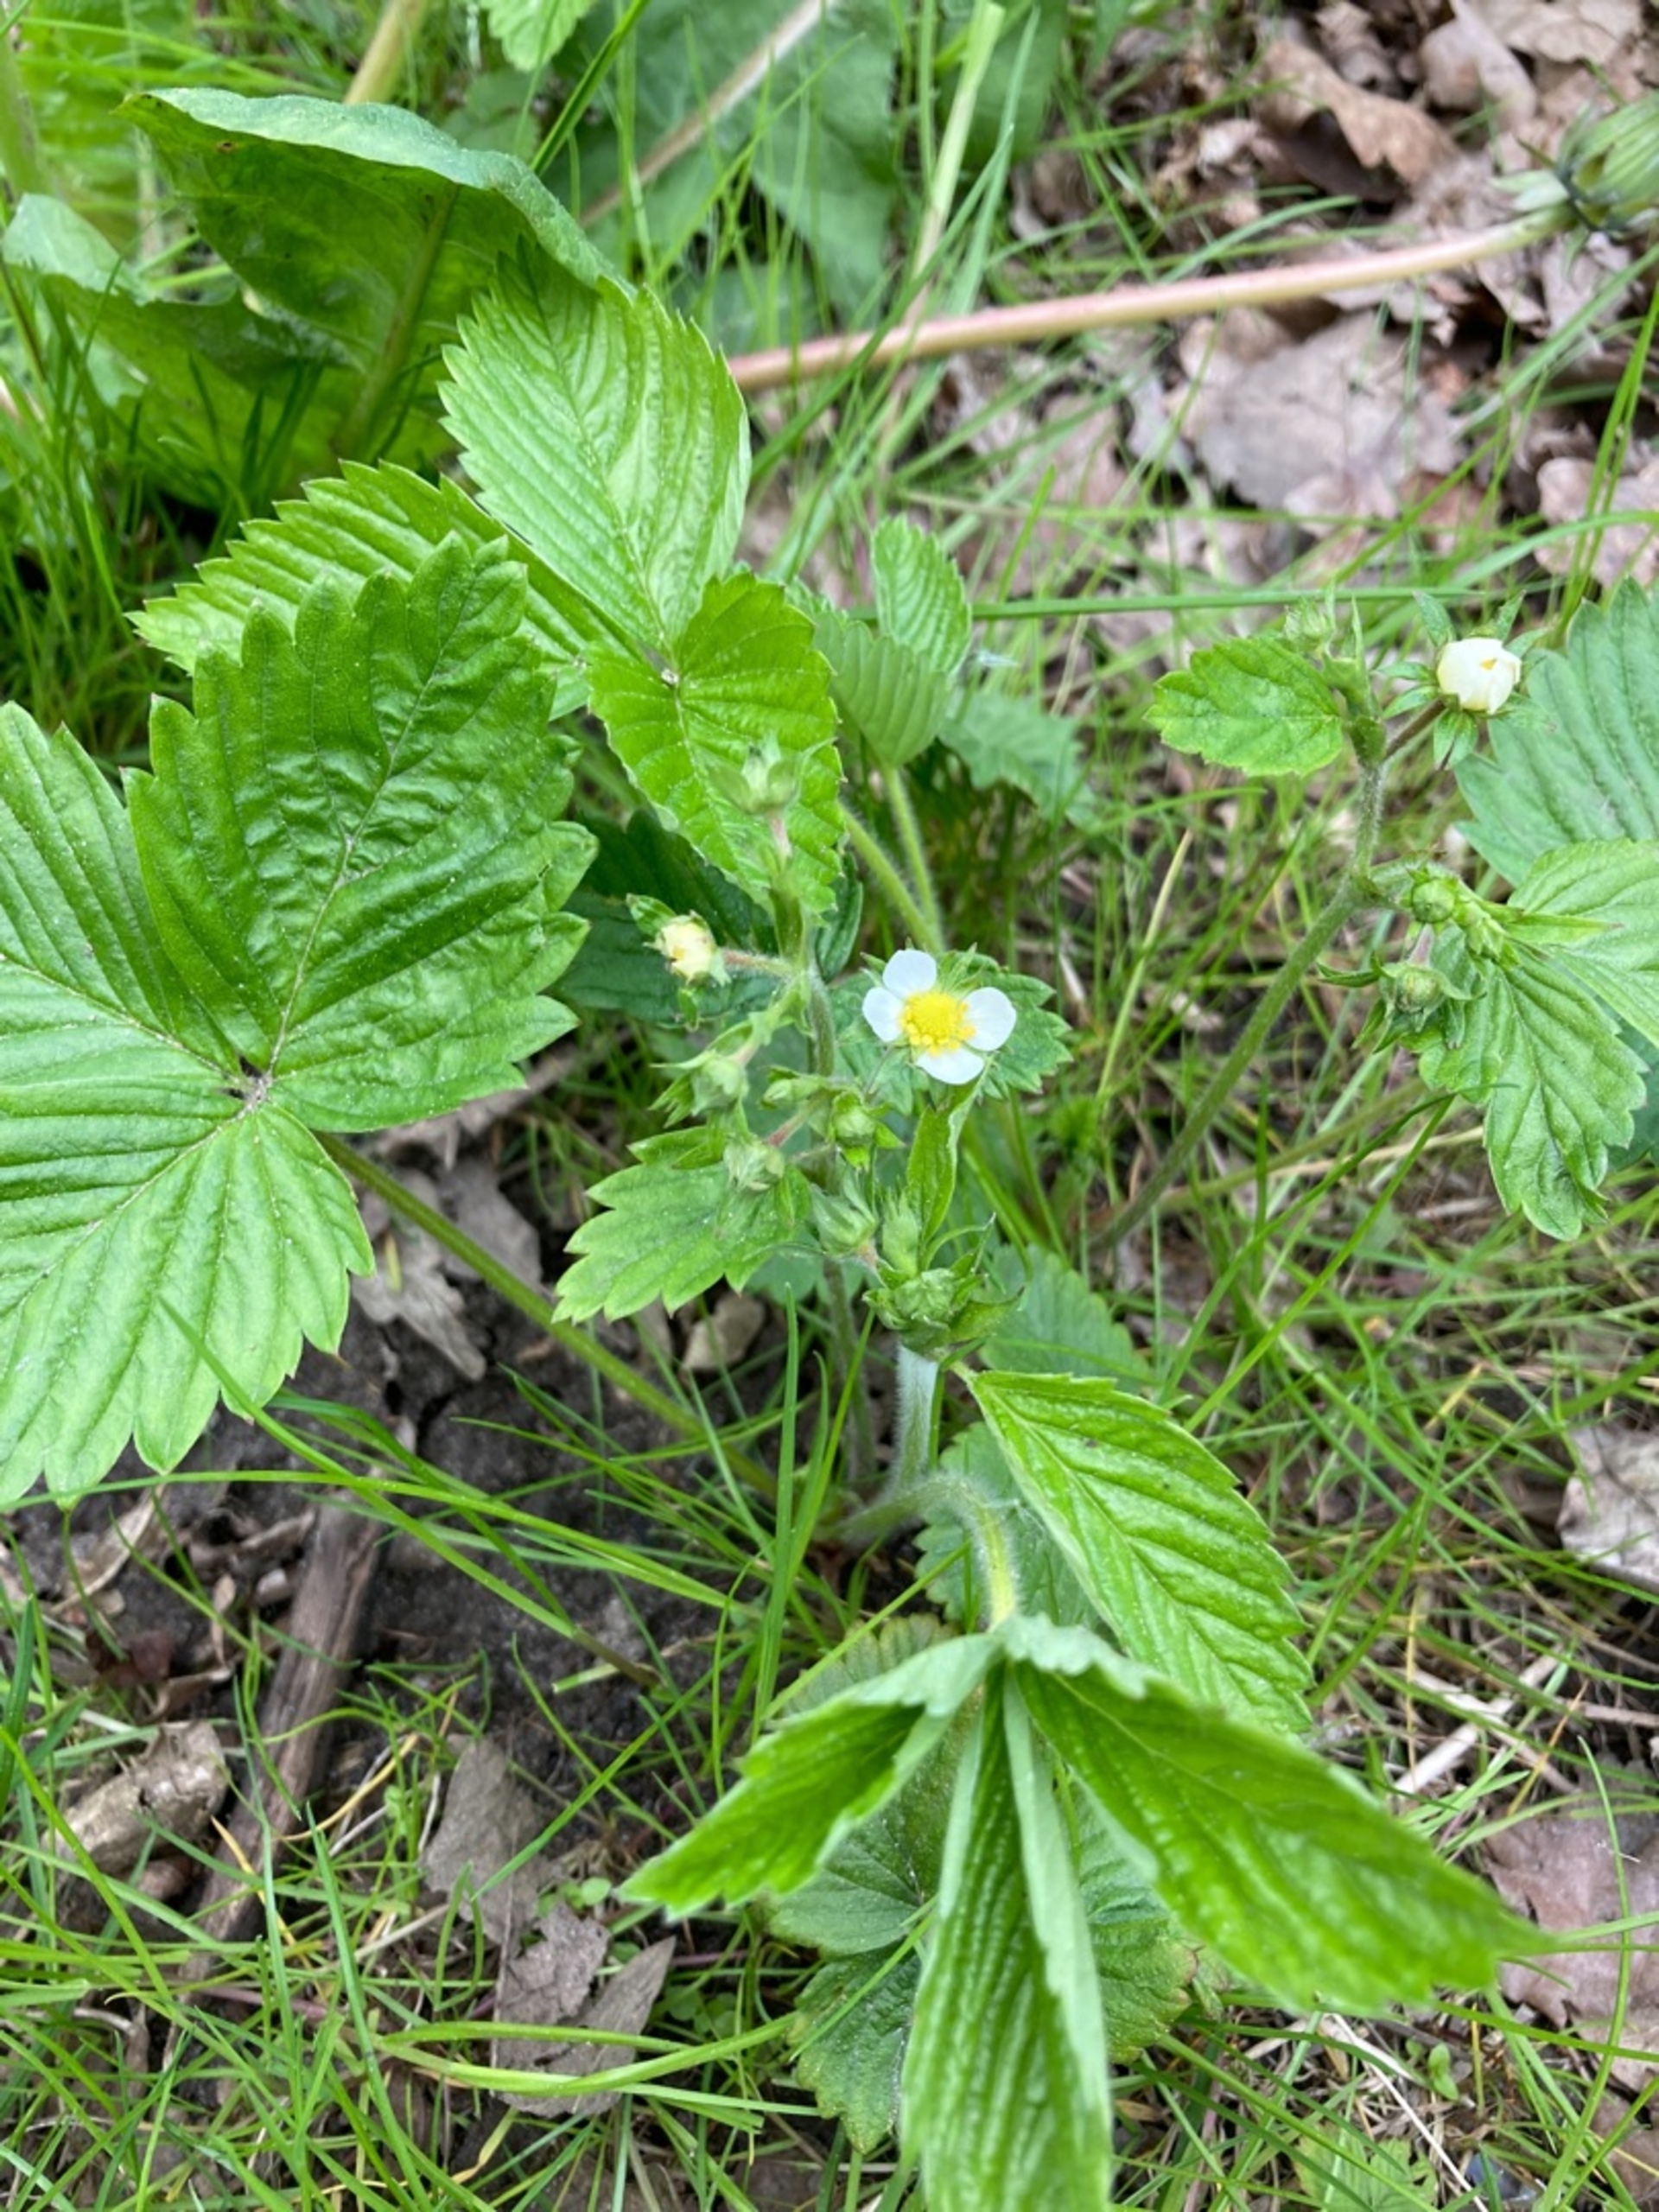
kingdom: Plantae
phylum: Tracheophyta
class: Magnoliopsida
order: Rosales
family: Rosaceae
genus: Fragaria
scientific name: Fragaria vesca
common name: Skov-jordbær
